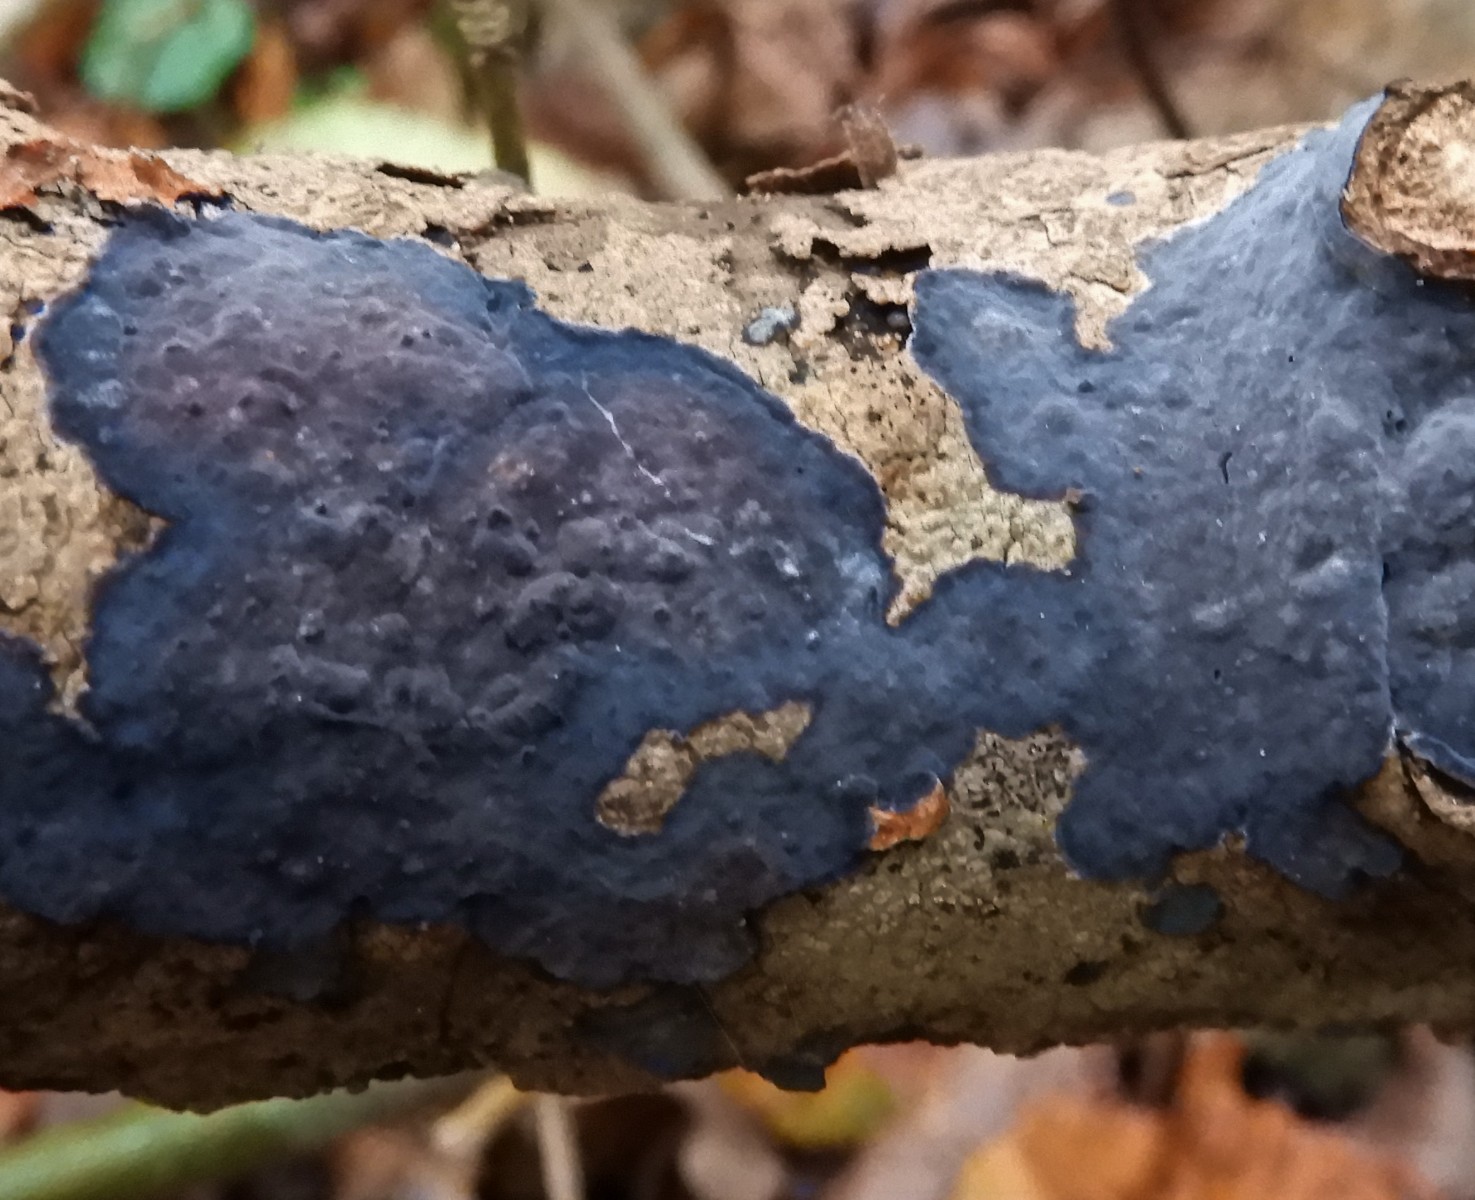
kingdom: Fungi
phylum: Basidiomycota
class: Agaricomycetes
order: Russulales
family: Peniophoraceae
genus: Peniophora
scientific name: Peniophora limitata
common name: mørkrandet voksskind
